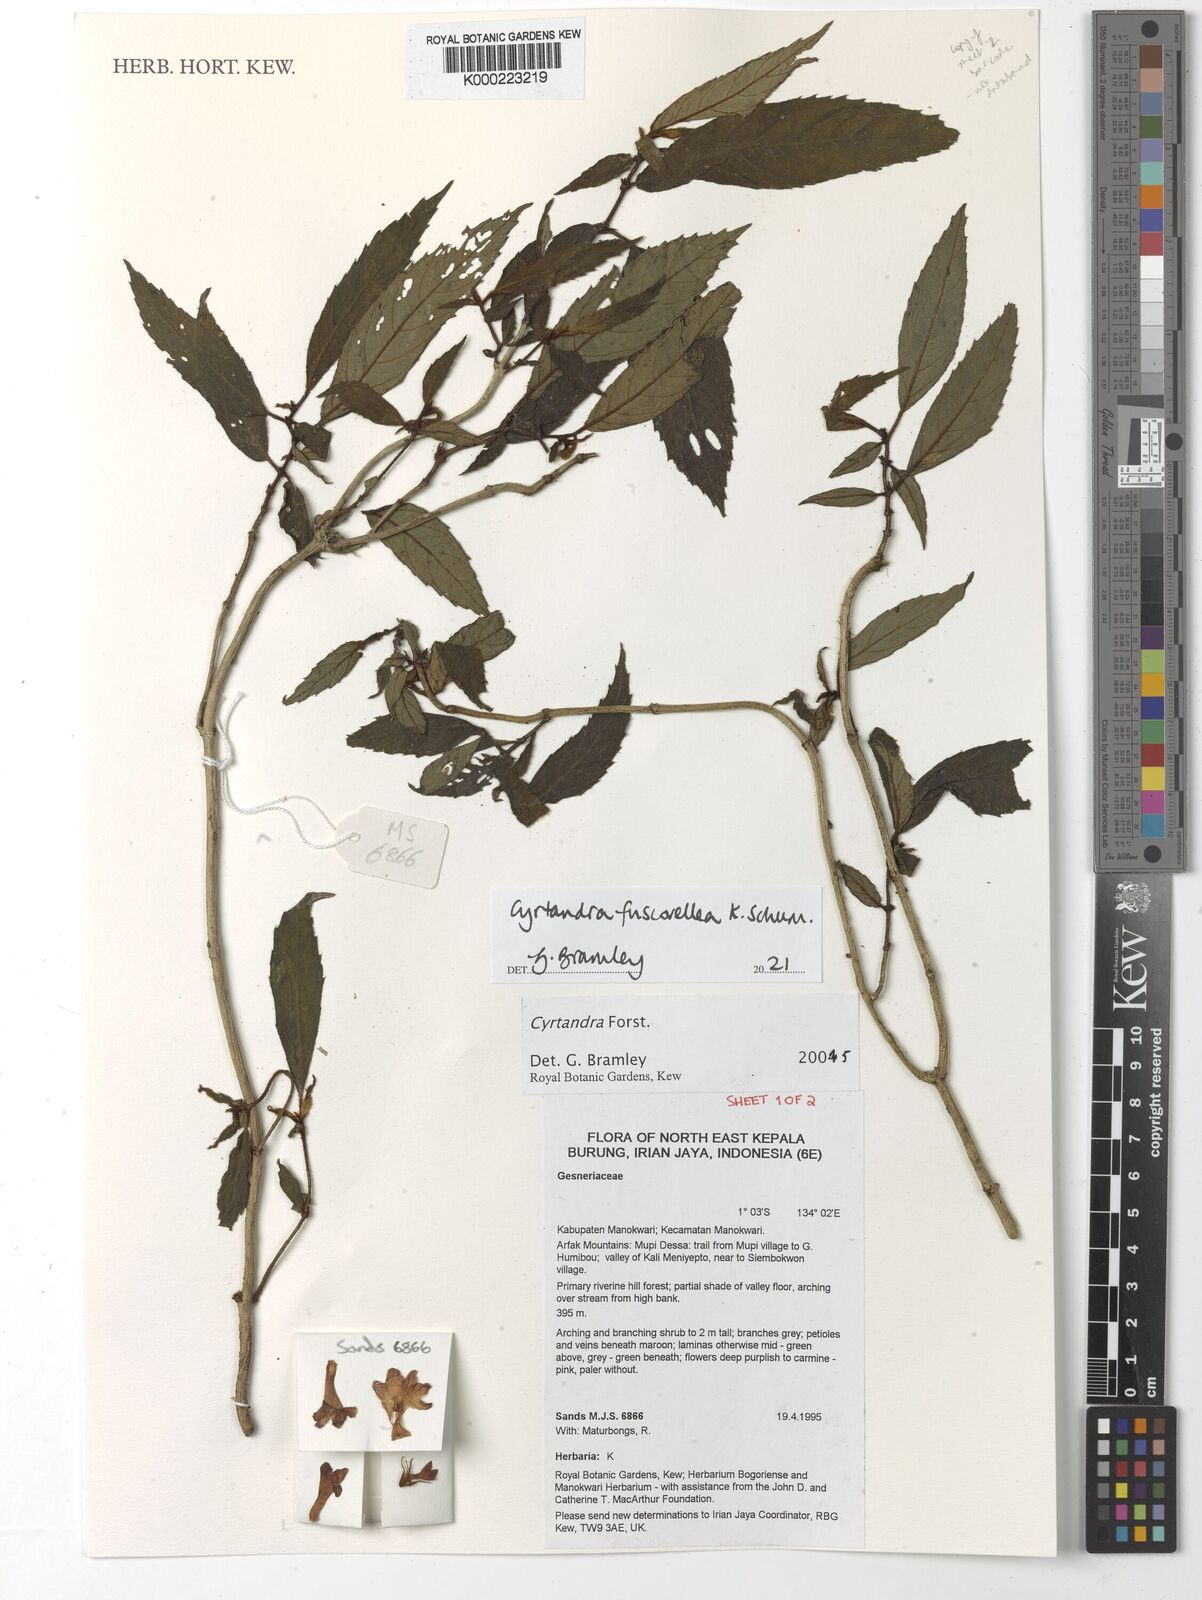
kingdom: Plantae
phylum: Tracheophyta
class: Magnoliopsida
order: Lamiales
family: Gesneriaceae
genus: Cyrtandra
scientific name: Cyrtandra
